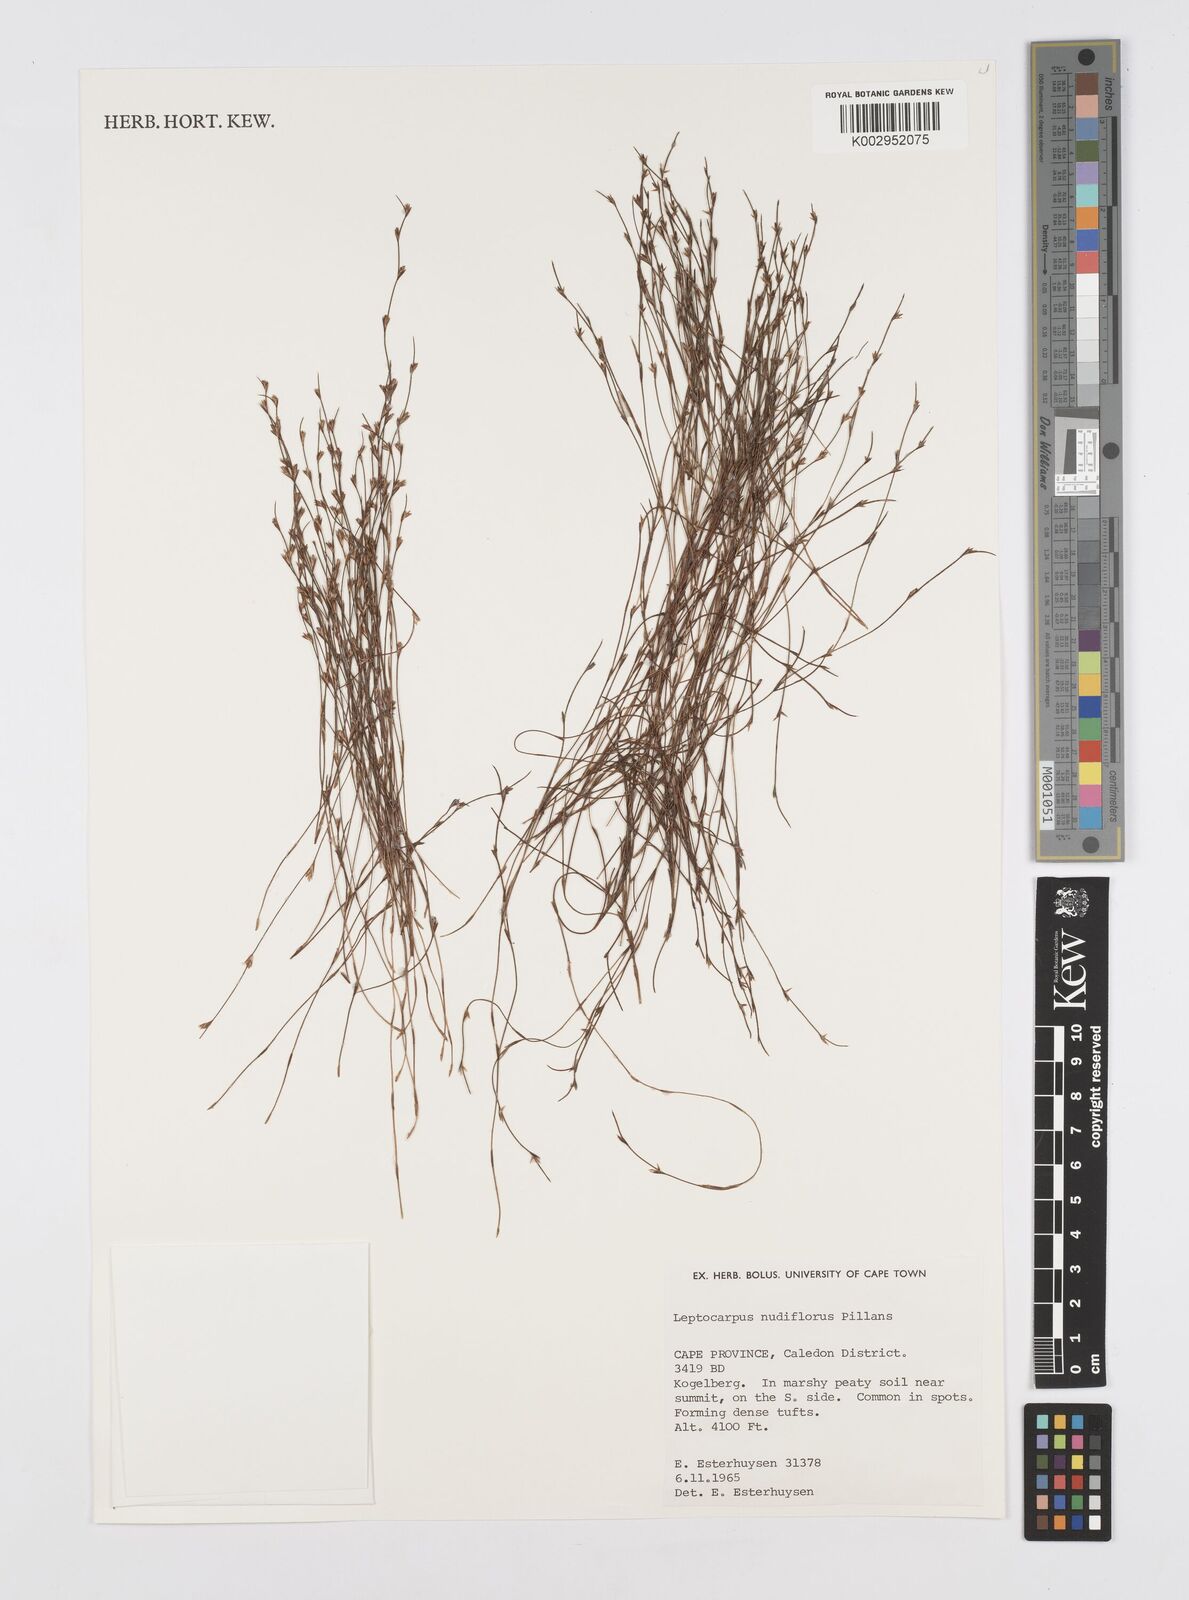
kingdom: Plantae
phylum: Tracheophyta
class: Liliopsida
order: Poales
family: Restionaceae
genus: Restio
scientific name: Restio nudiflorus
